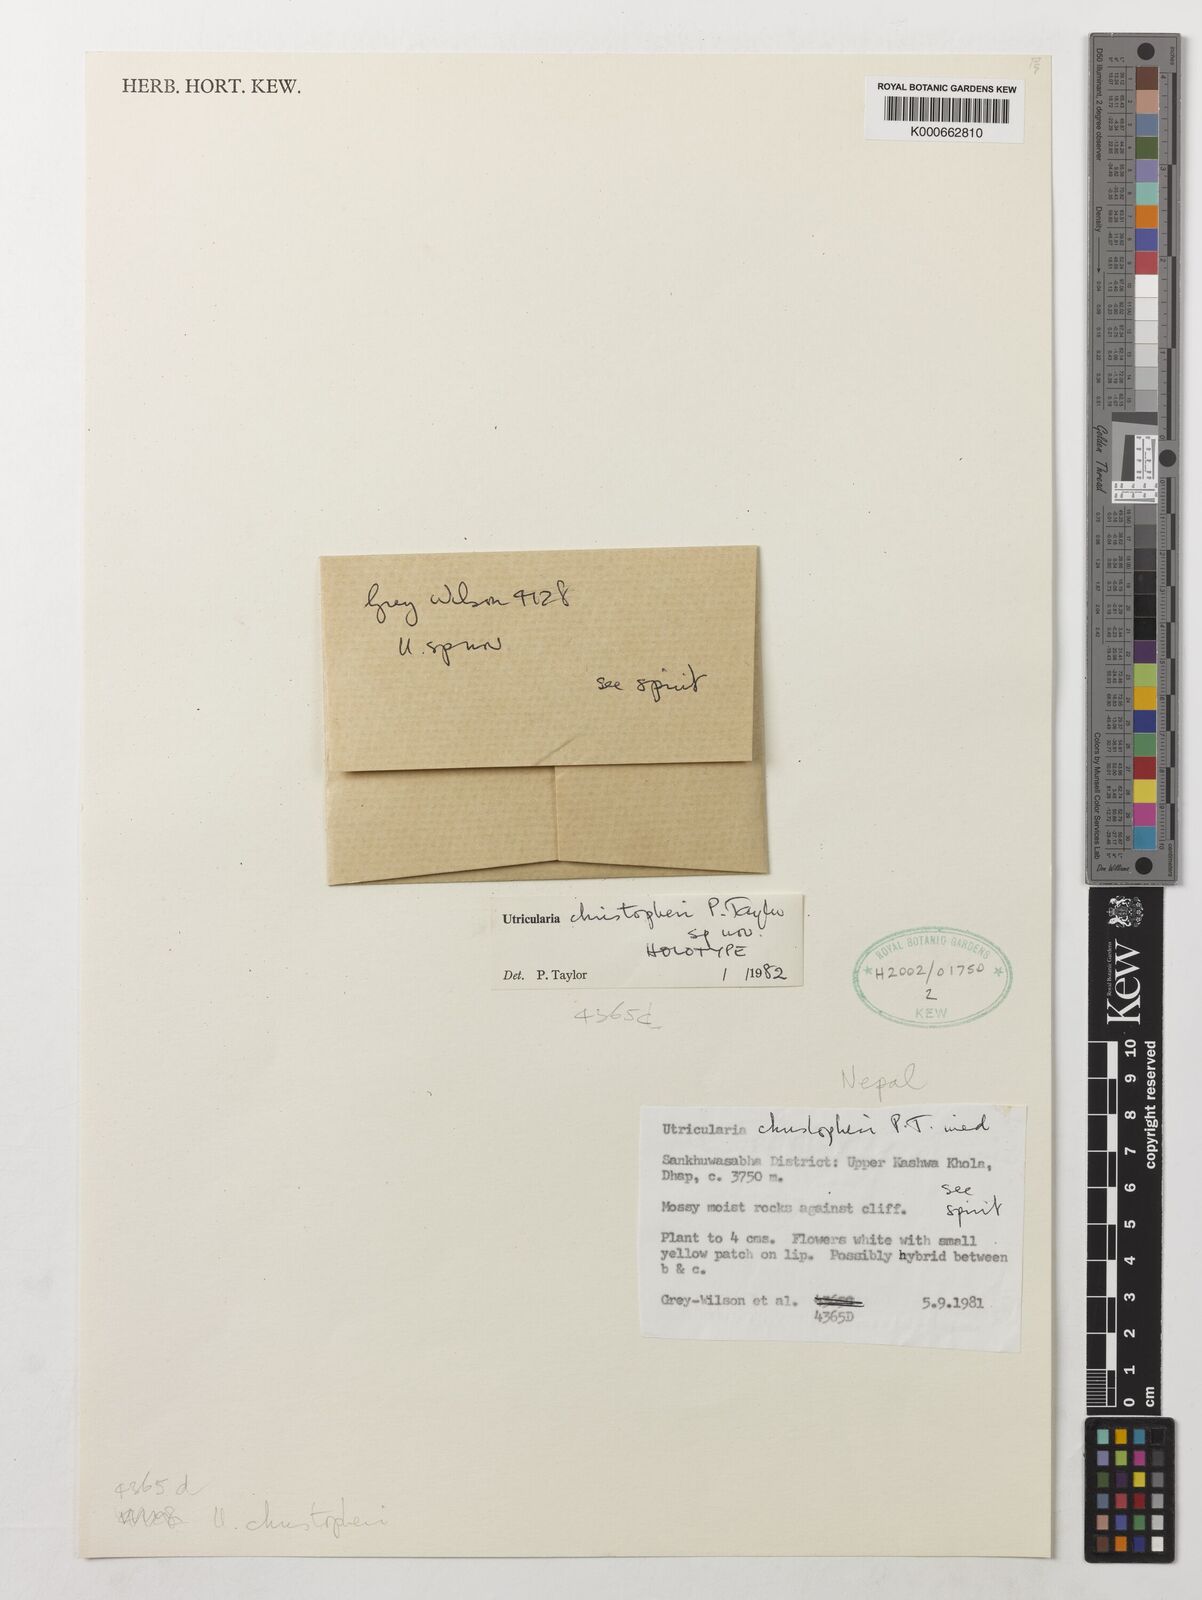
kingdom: Plantae
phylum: Tracheophyta
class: Magnoliopsida
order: Lamiales
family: Lentibulariaceae
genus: Utricularia
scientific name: Utricularia christopheri
